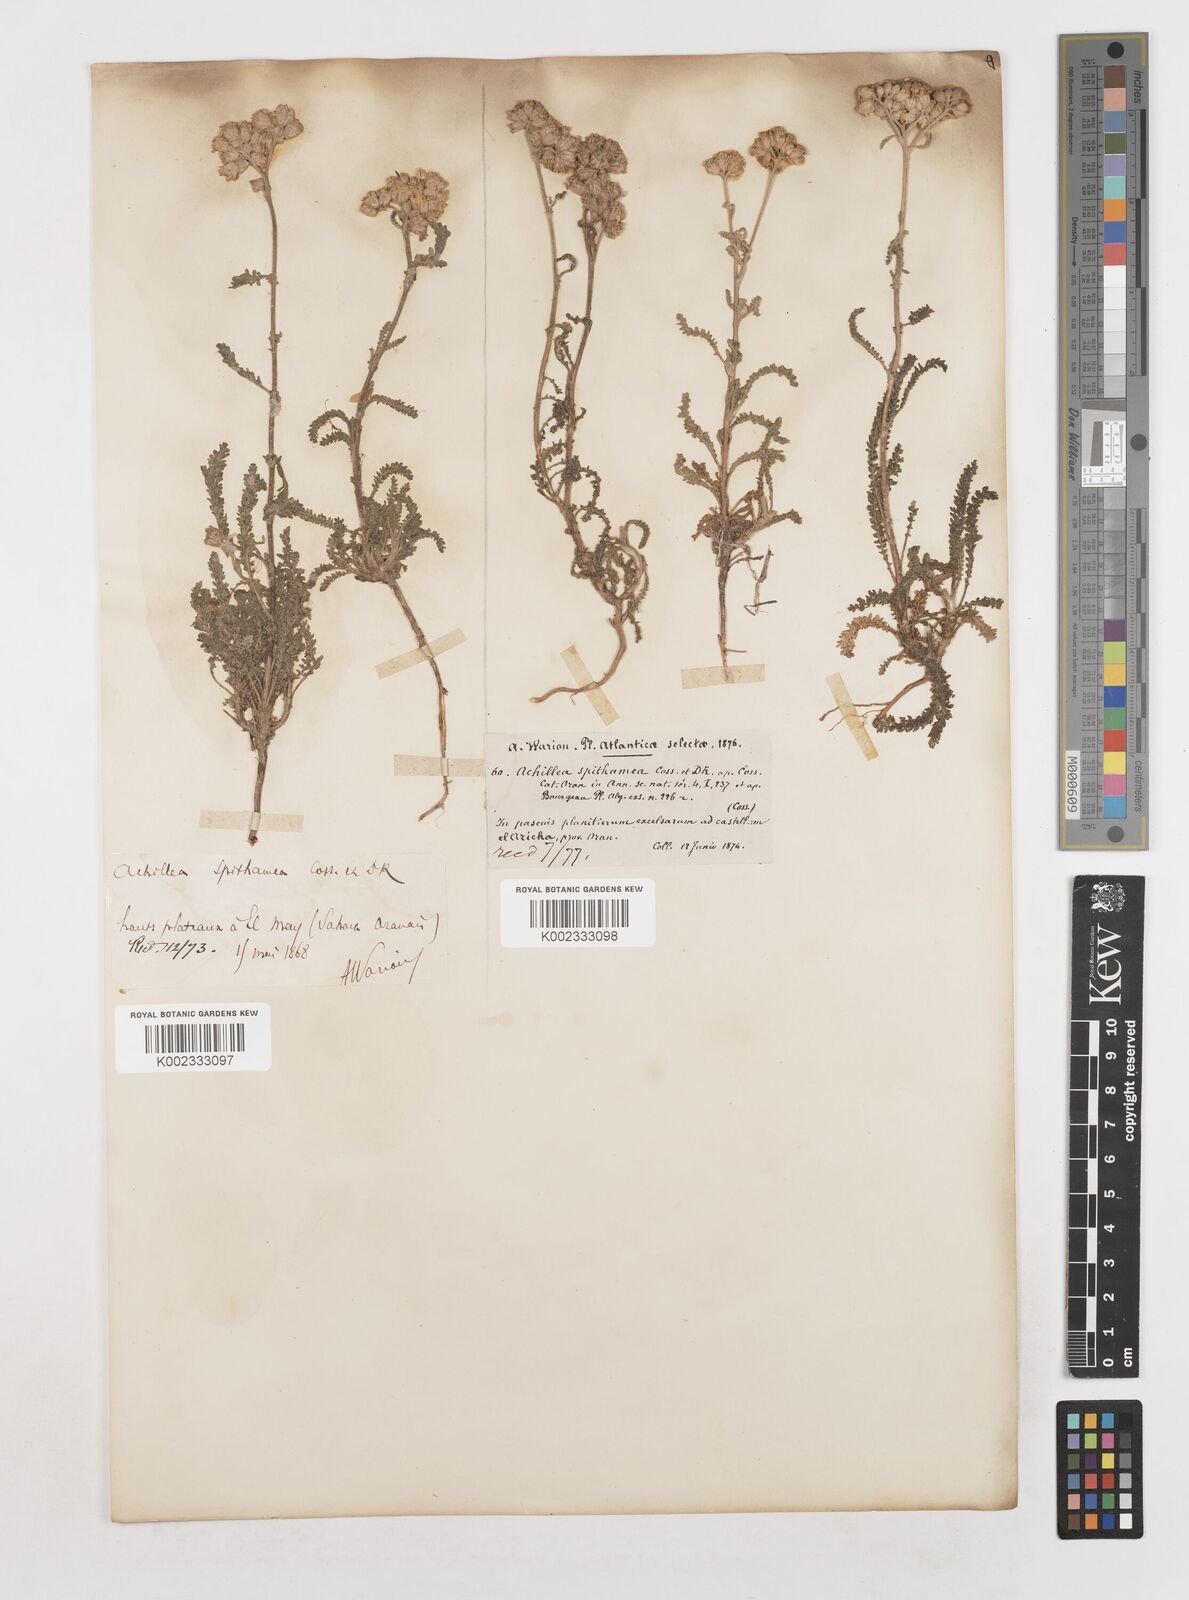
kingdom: Plantae
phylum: Tracheophyta
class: Magnoliopsida
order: Asterales
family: Asteraceae
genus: Achillea
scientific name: Achillea leptophylla
